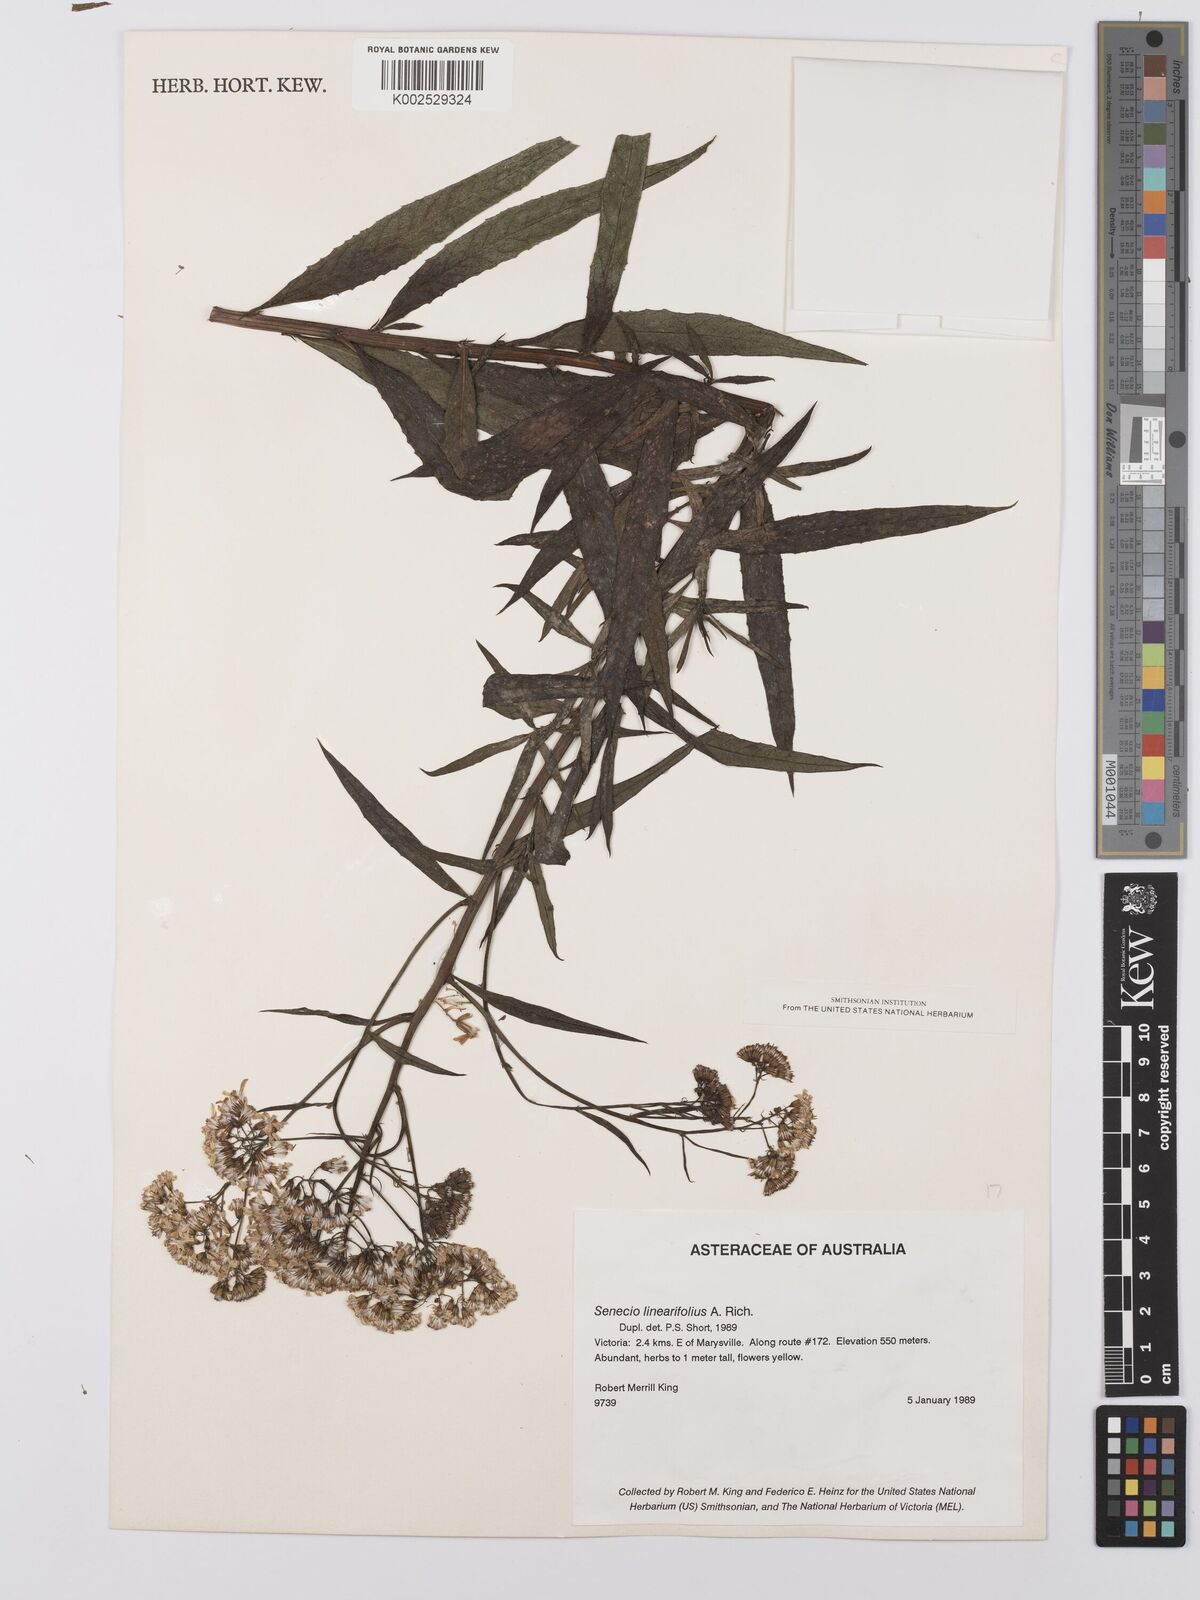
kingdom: Plantae
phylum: Tracheophyta
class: Magnoliopsida
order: Asterales
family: Asteraceae
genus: Senecio
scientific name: Senecio linearifolius
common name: Fireweed groundsel
